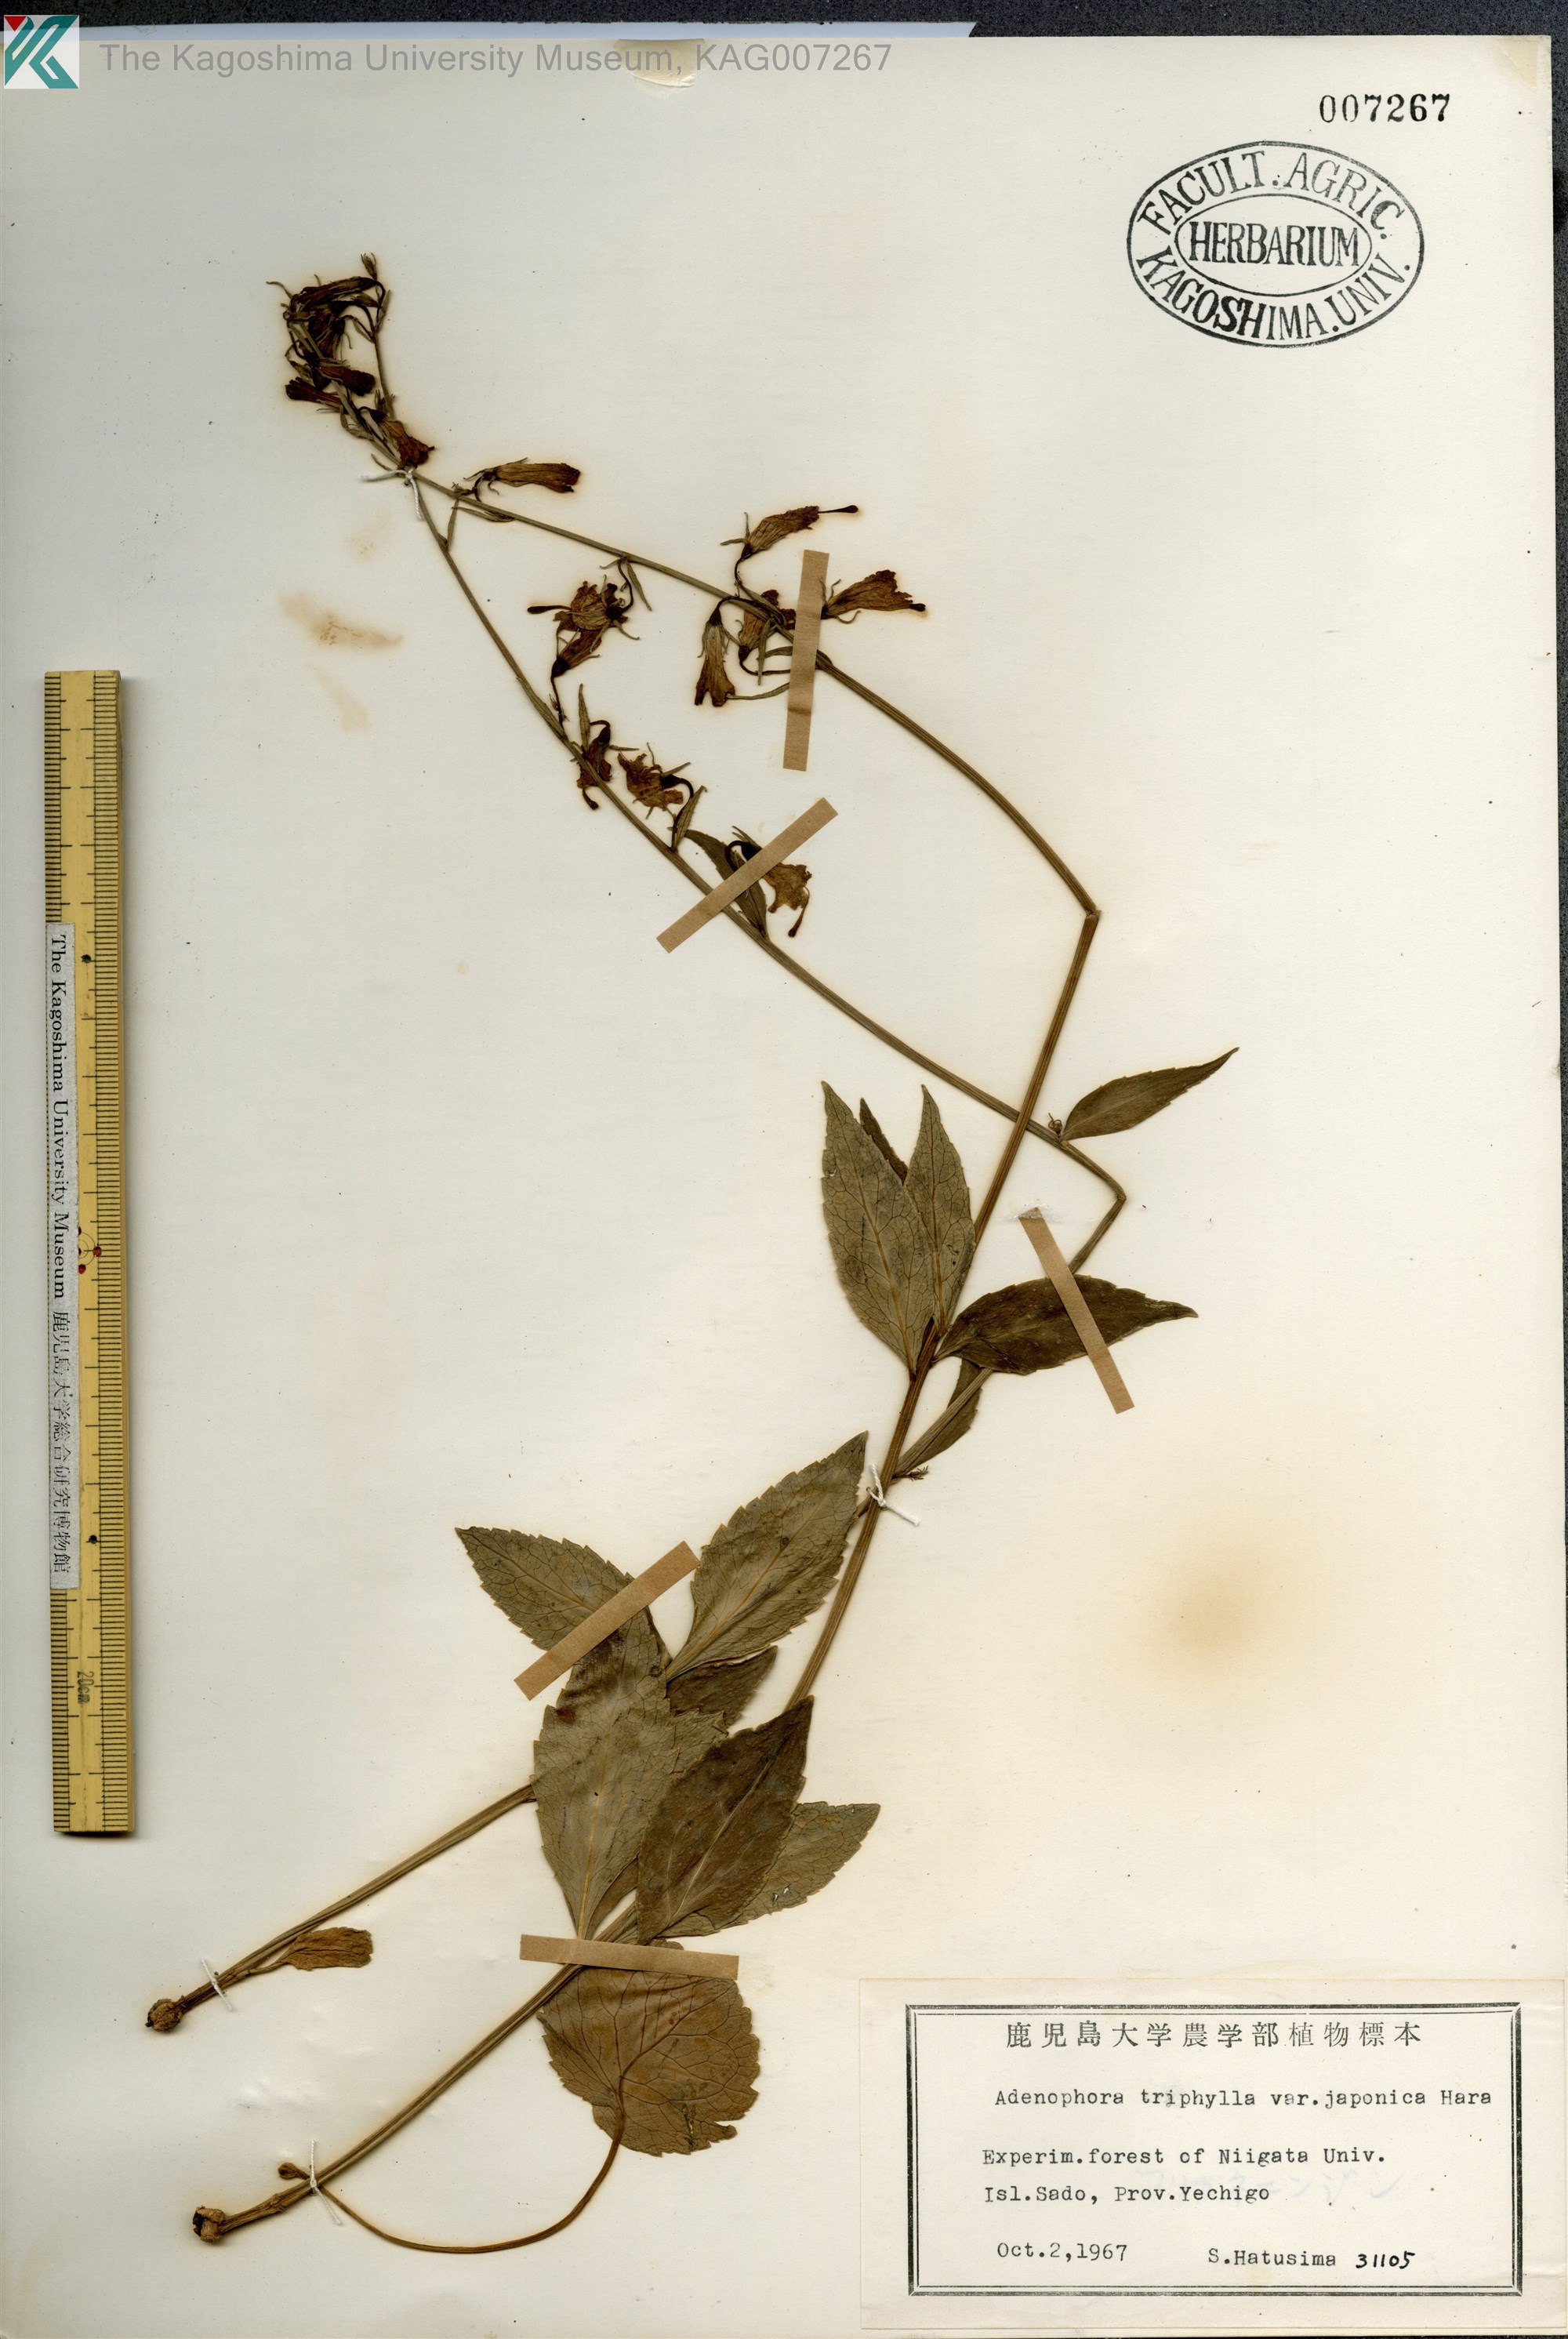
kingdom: Plantae
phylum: Tracheophyta
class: Magnoliopsida
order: Asterales
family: Campanulaceae
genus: Adenophora
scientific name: Adenophora triphylla
